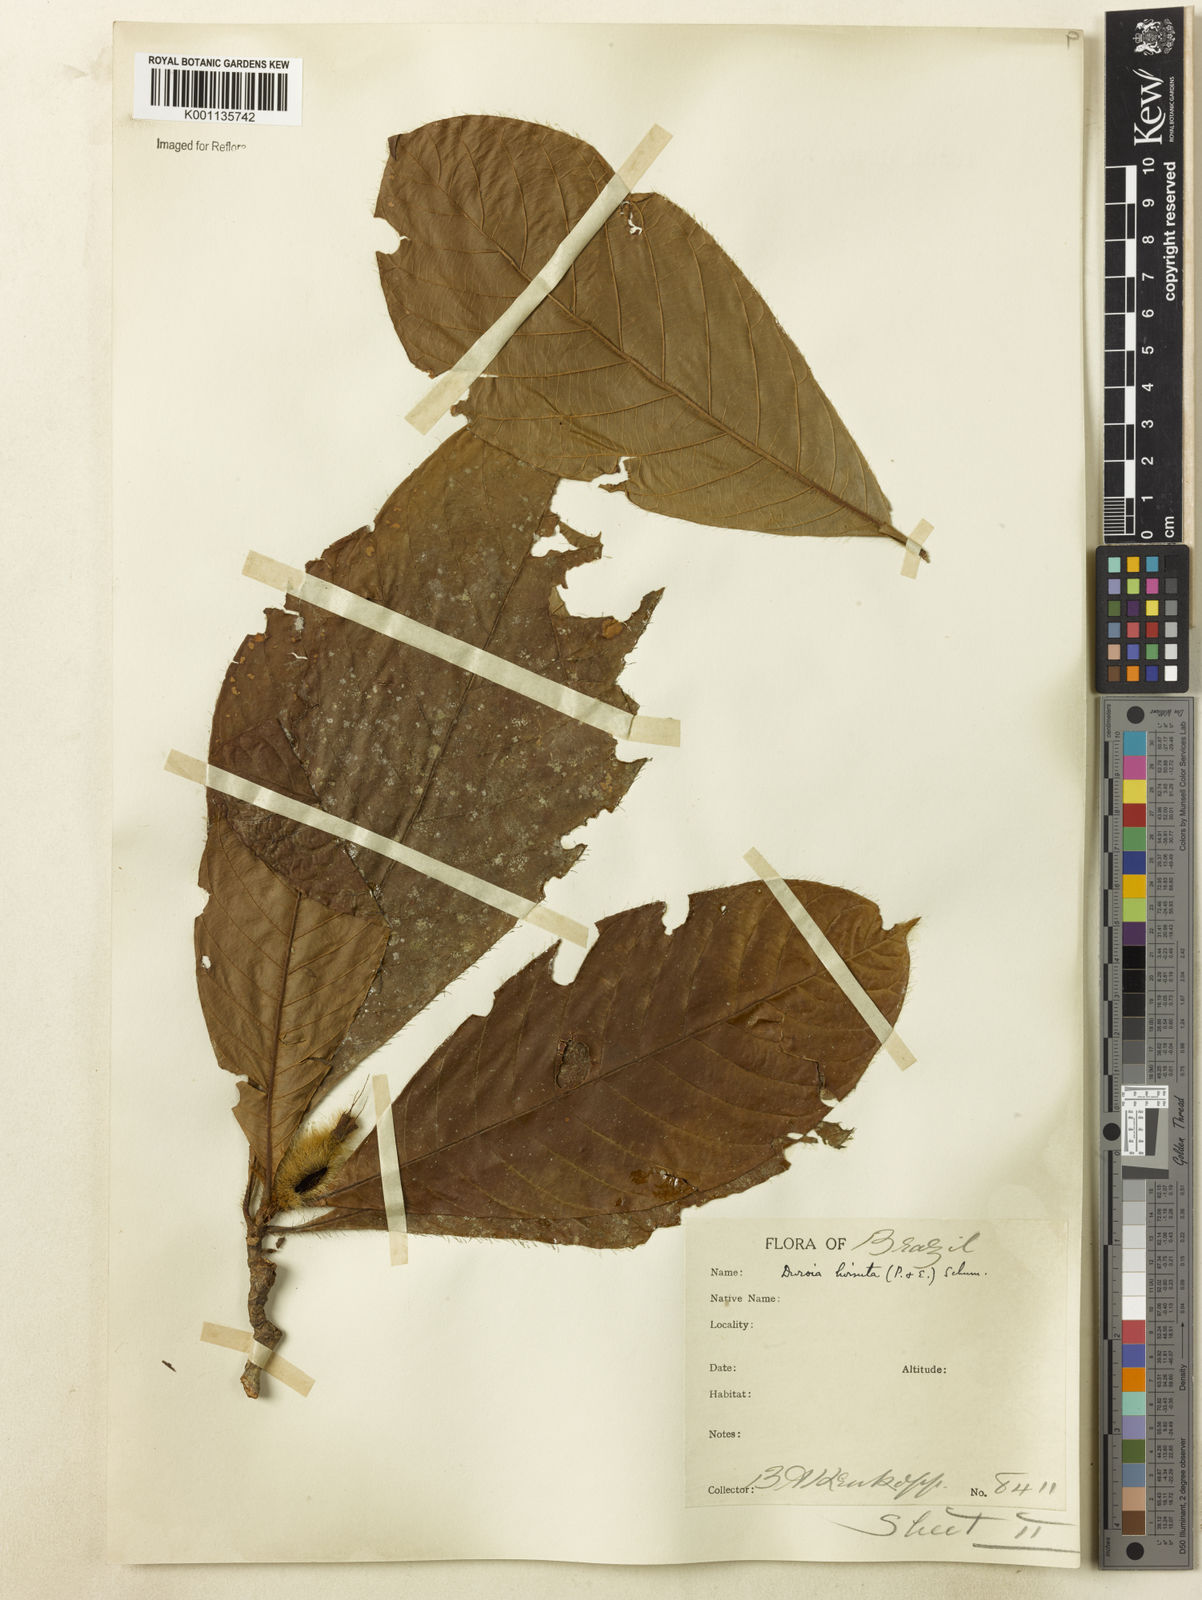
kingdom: Plantae
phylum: Tracheophyta
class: Magnoliopsida
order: Gentianales
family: Rubiaceae
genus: Duroia
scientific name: Duroia hirsuta
